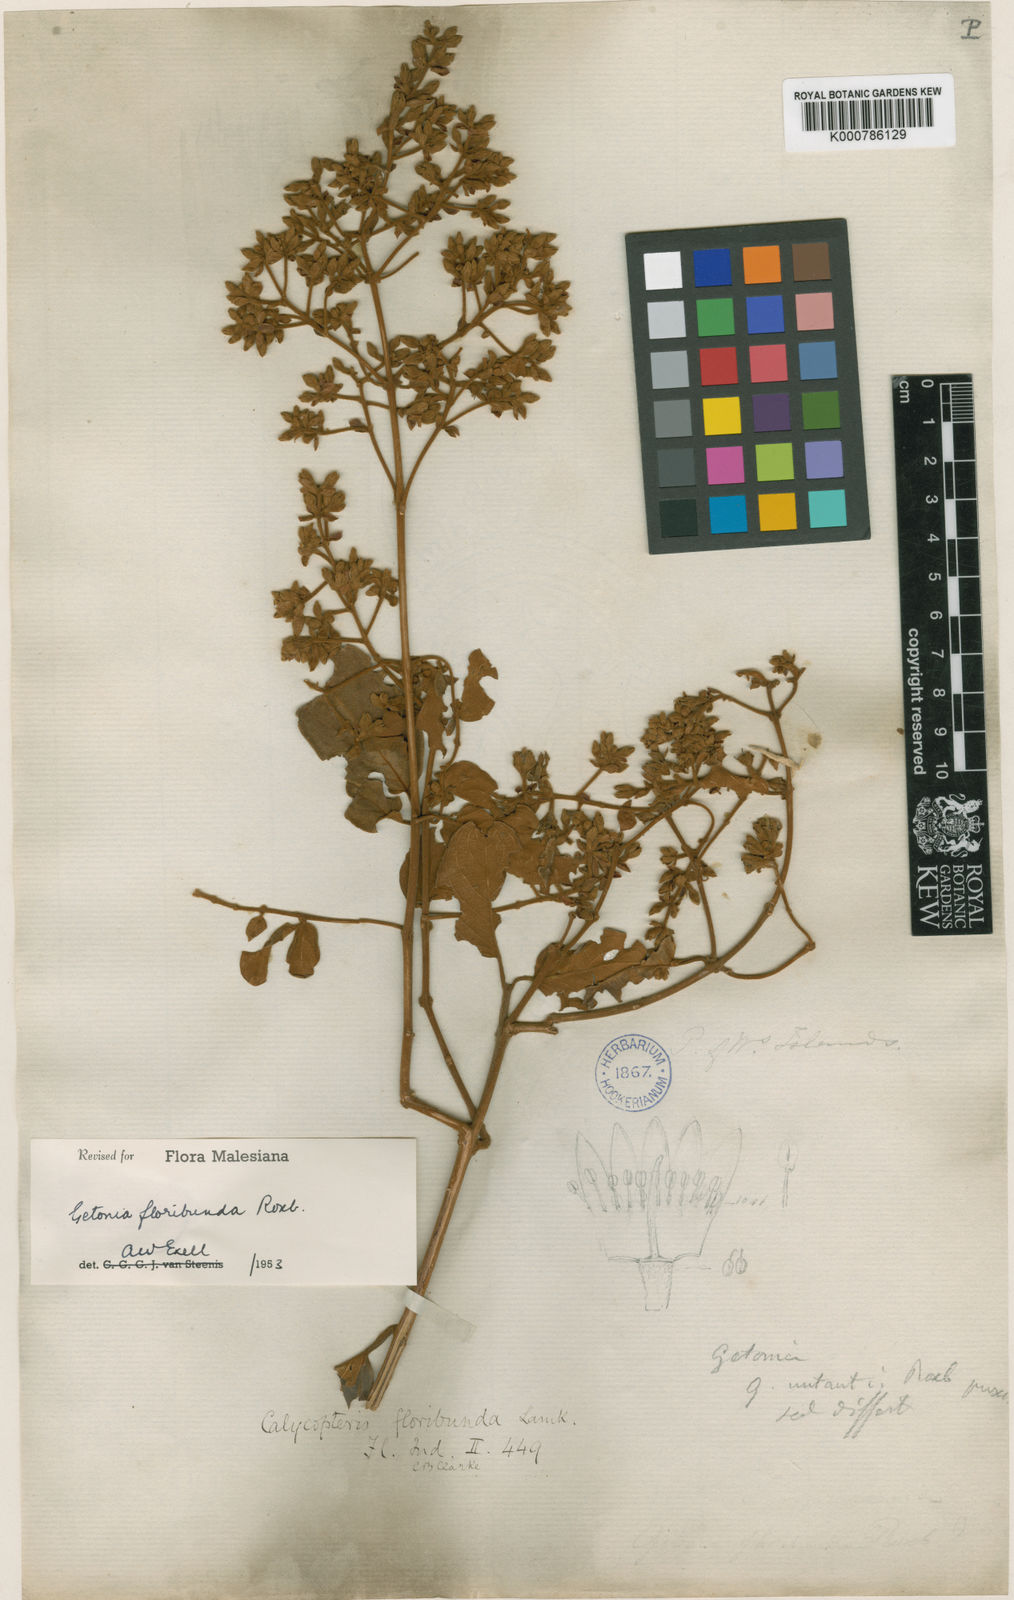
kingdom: Plantae
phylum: Tracheophyta
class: Magnoliopsida
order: Myrtales
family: Combretaceae
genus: Getonia
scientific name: Getonia floribunda
